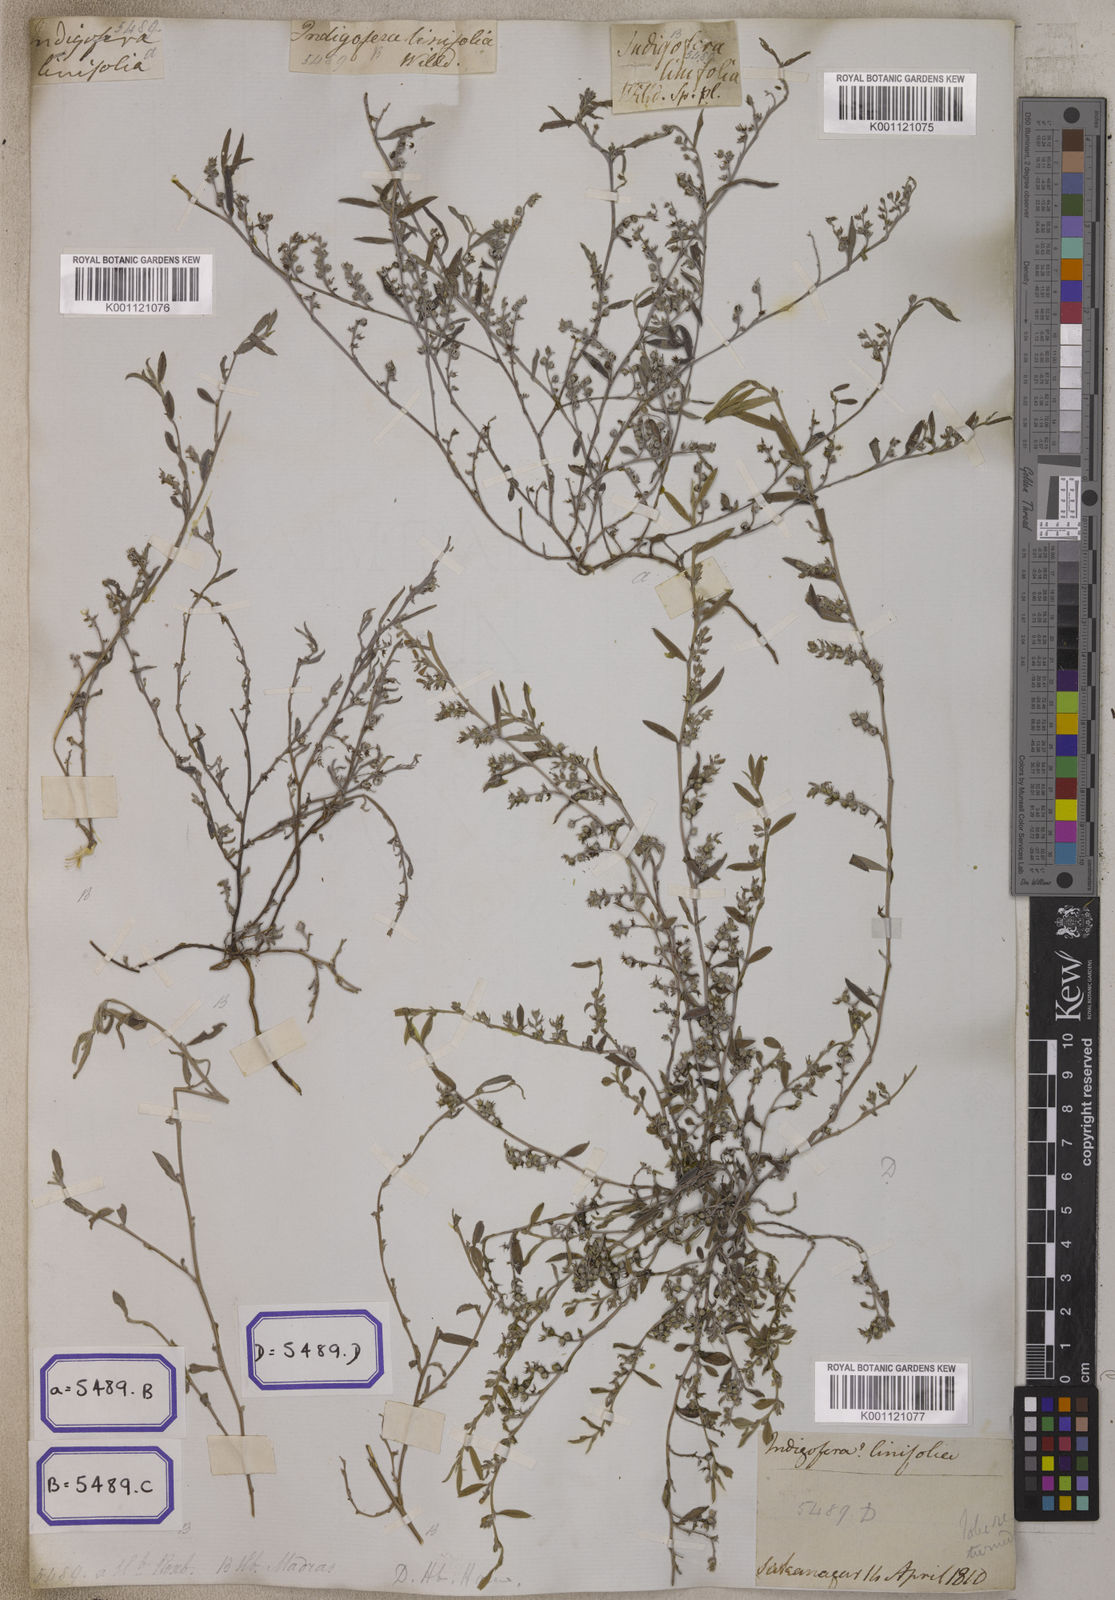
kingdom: Plantae
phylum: Tracheophyta
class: Magnoliopsida
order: Fabales
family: Fabaceae
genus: Indigofera
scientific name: Indigofera linifolia
